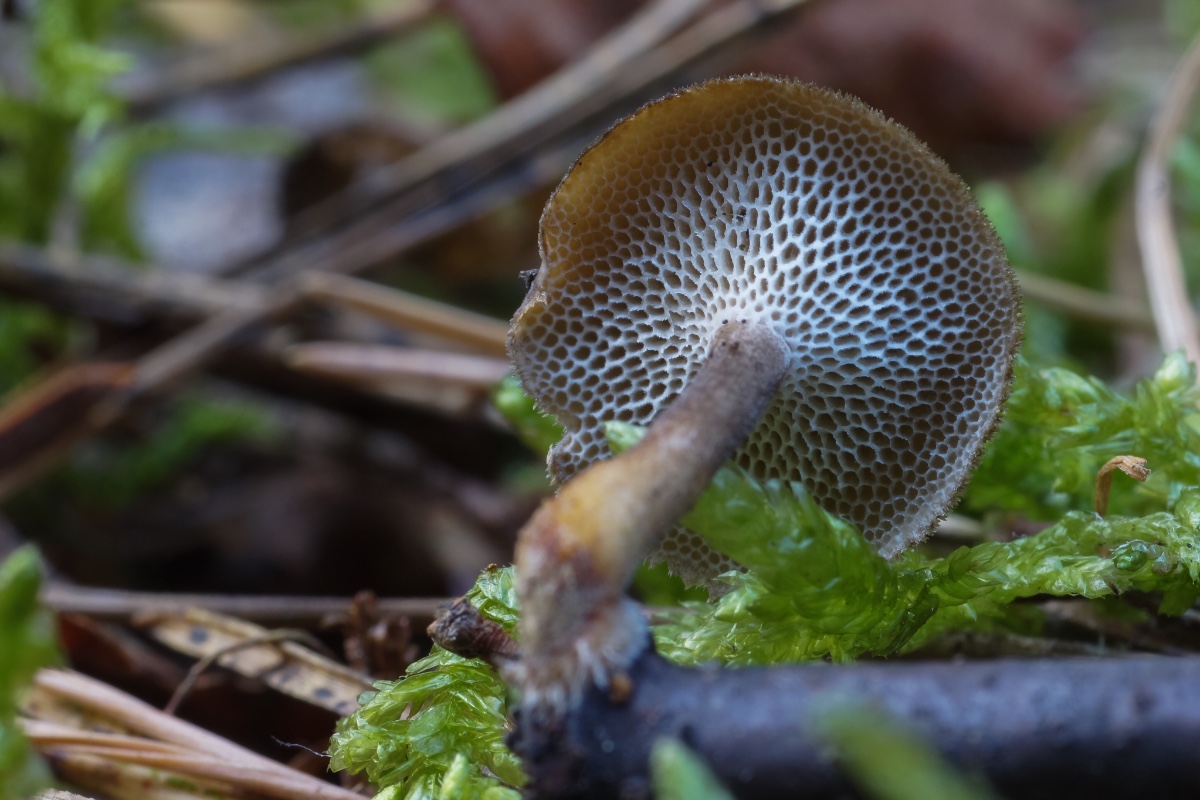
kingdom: Fungi
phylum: Basidiomycota
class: Agaricomycetes
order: Polyporales
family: Polyporaceae
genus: Lentinus
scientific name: Lentinus brumalis
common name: vinter-stilkporesvamp
